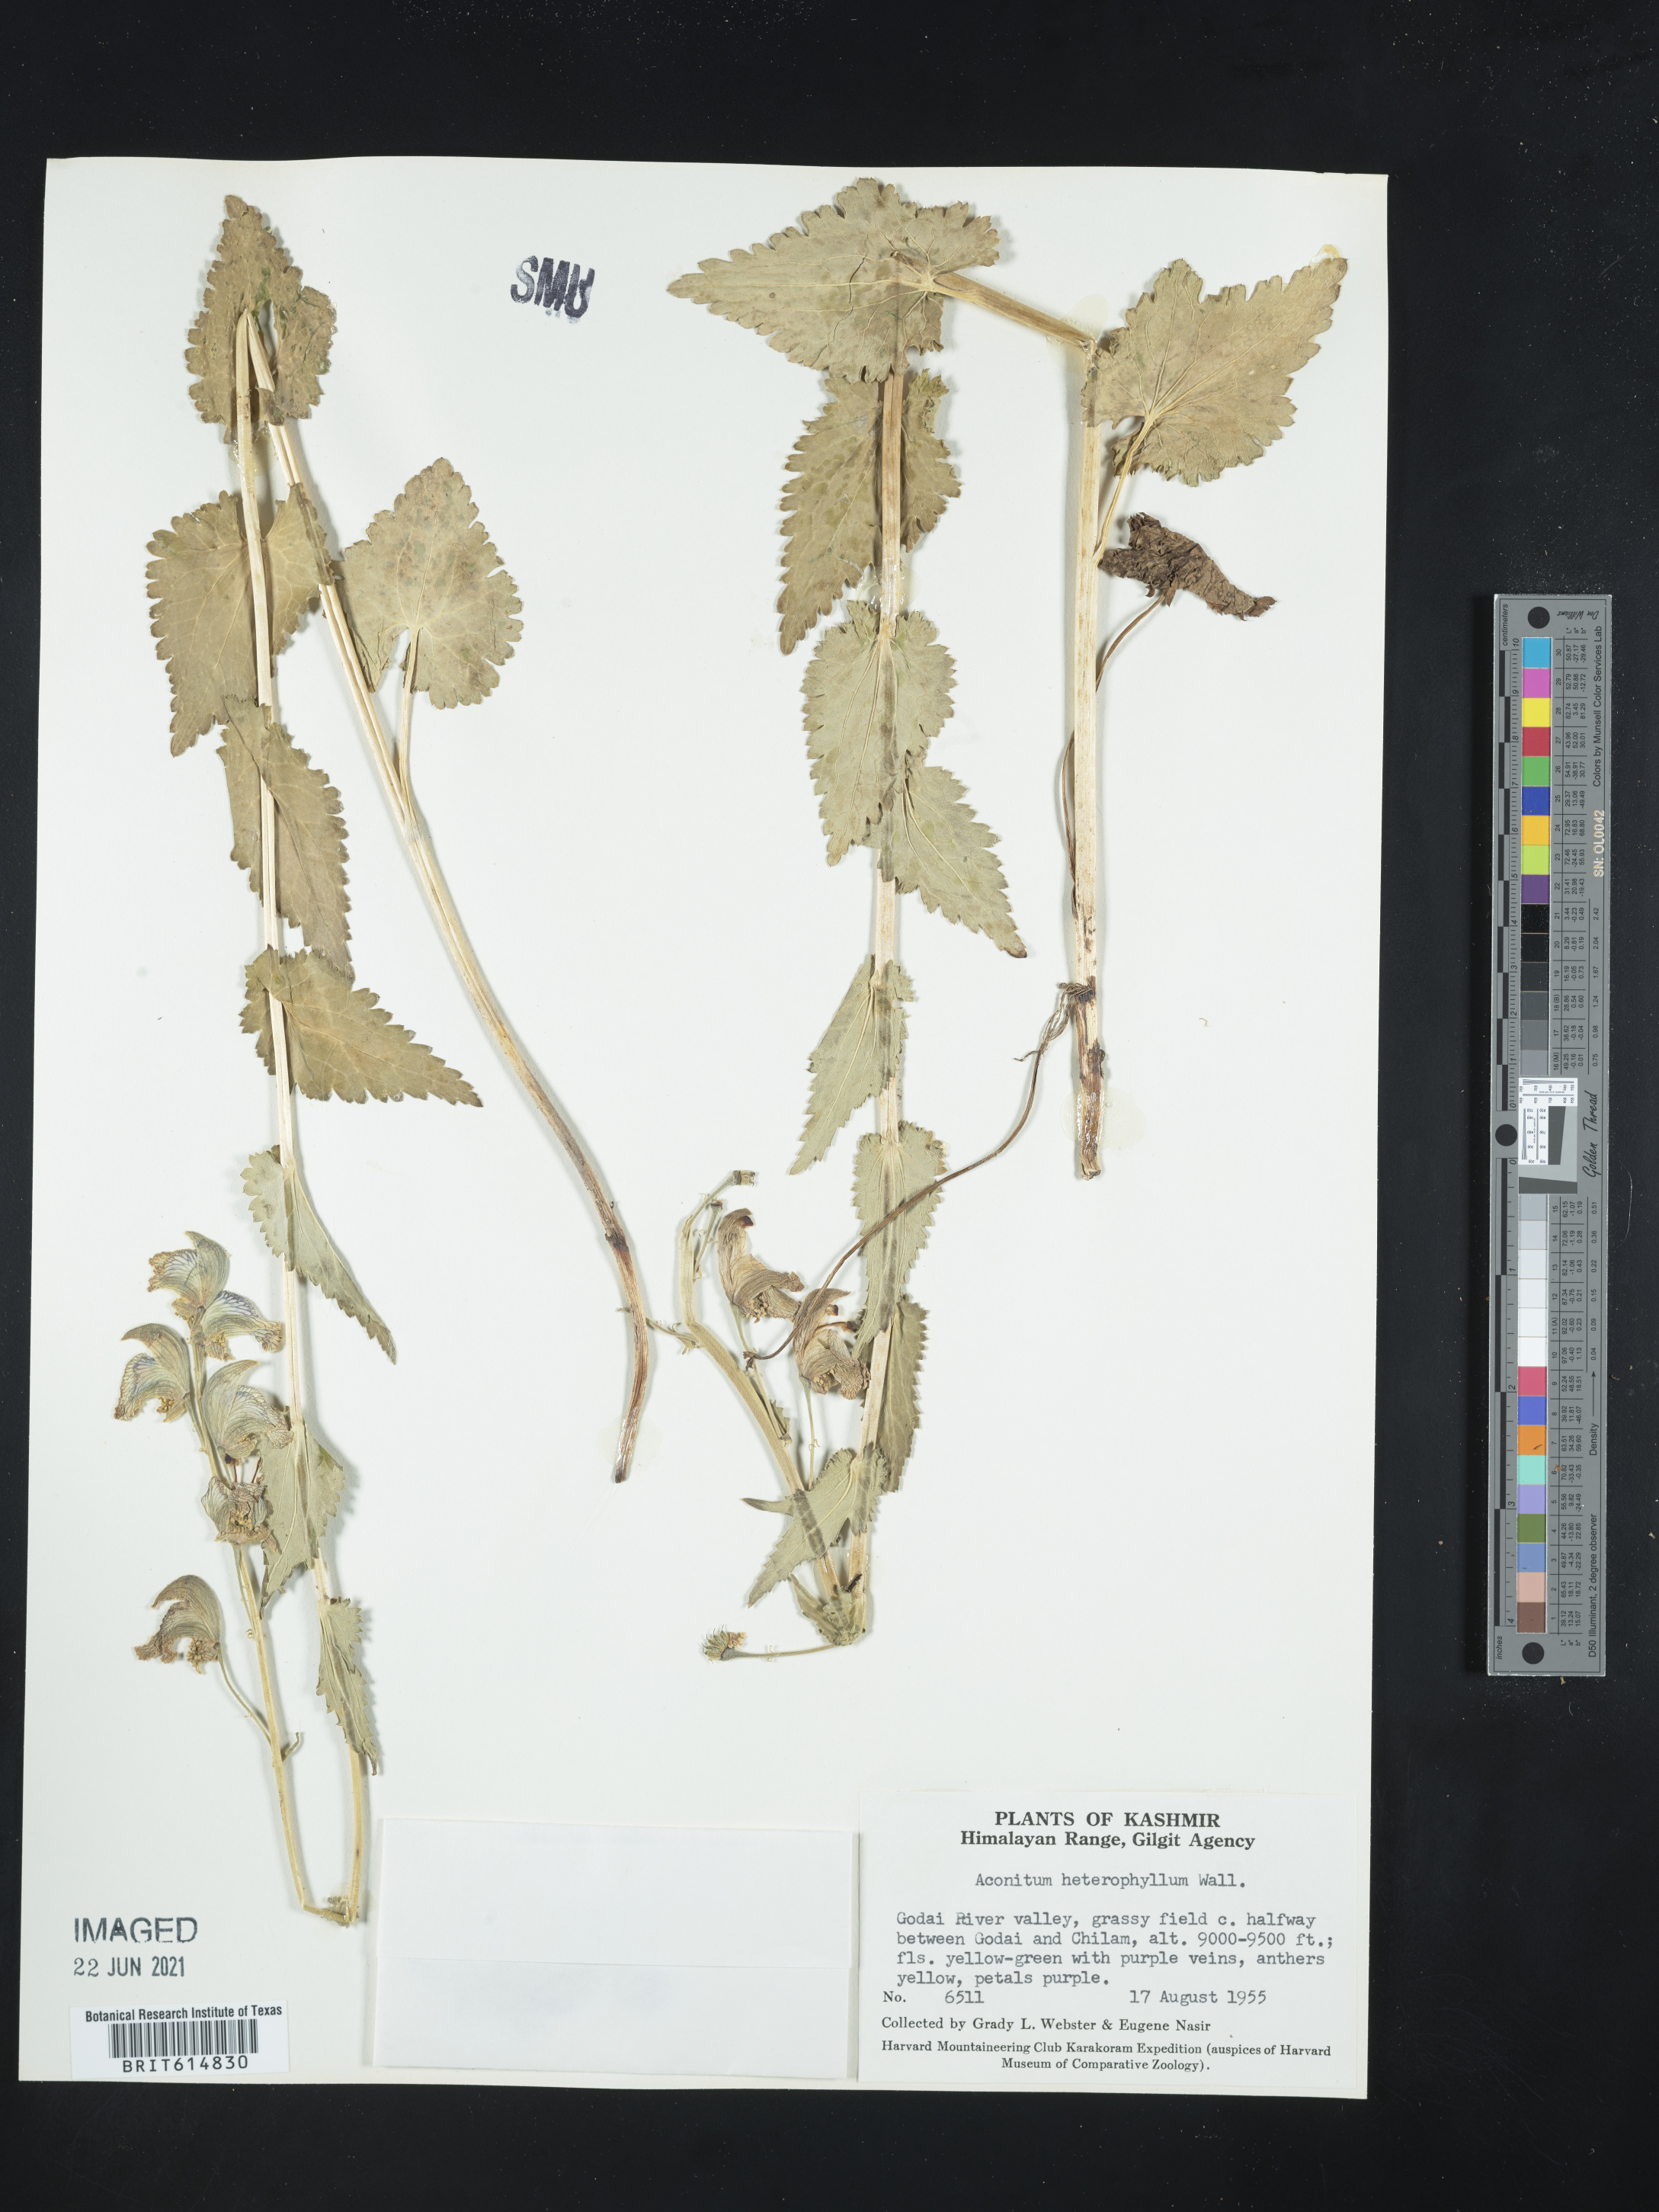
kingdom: Plantae
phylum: Tracheophyta
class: Magnoliopsida
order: Ranunculales
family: Ranunculaceae
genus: Aconitum
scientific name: Aconitum heterophyllum
